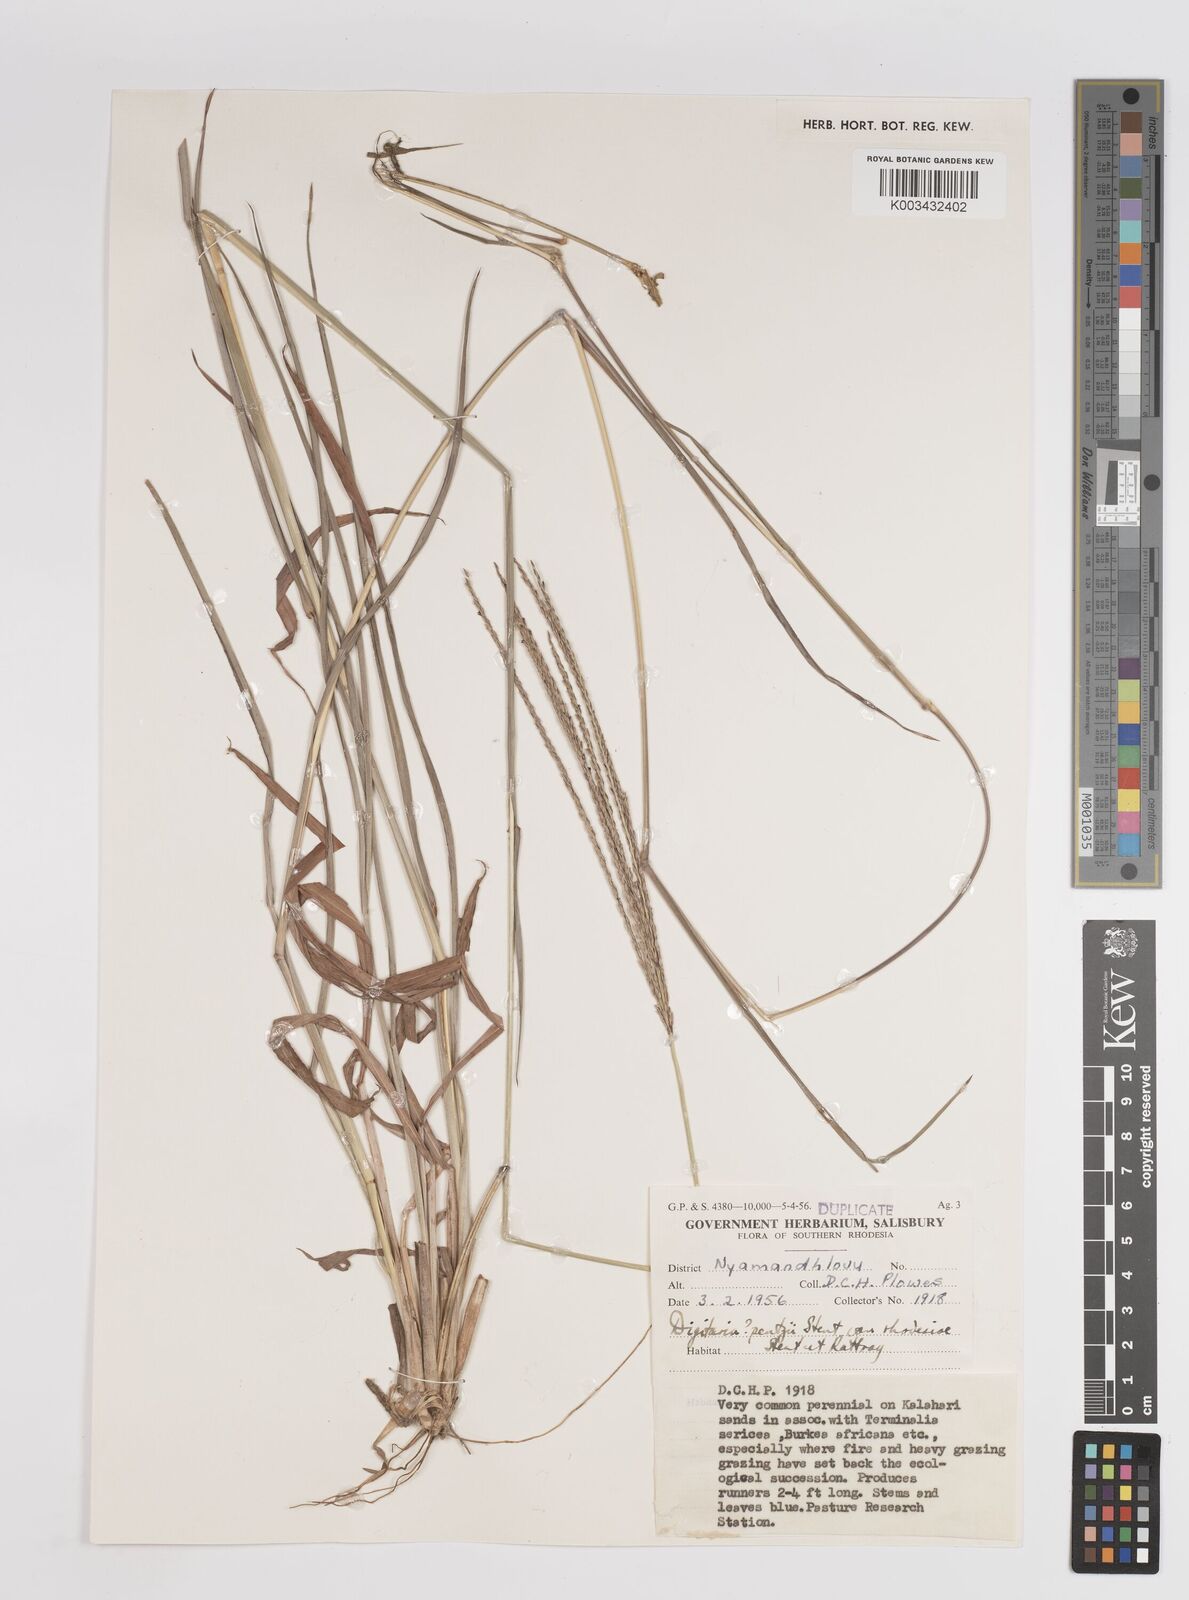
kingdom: Plantae
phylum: Tracheophyta
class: Liliopsida
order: Poales
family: Poaceae
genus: Digitaria
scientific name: Digitaria eriantha
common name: Digitgrass
